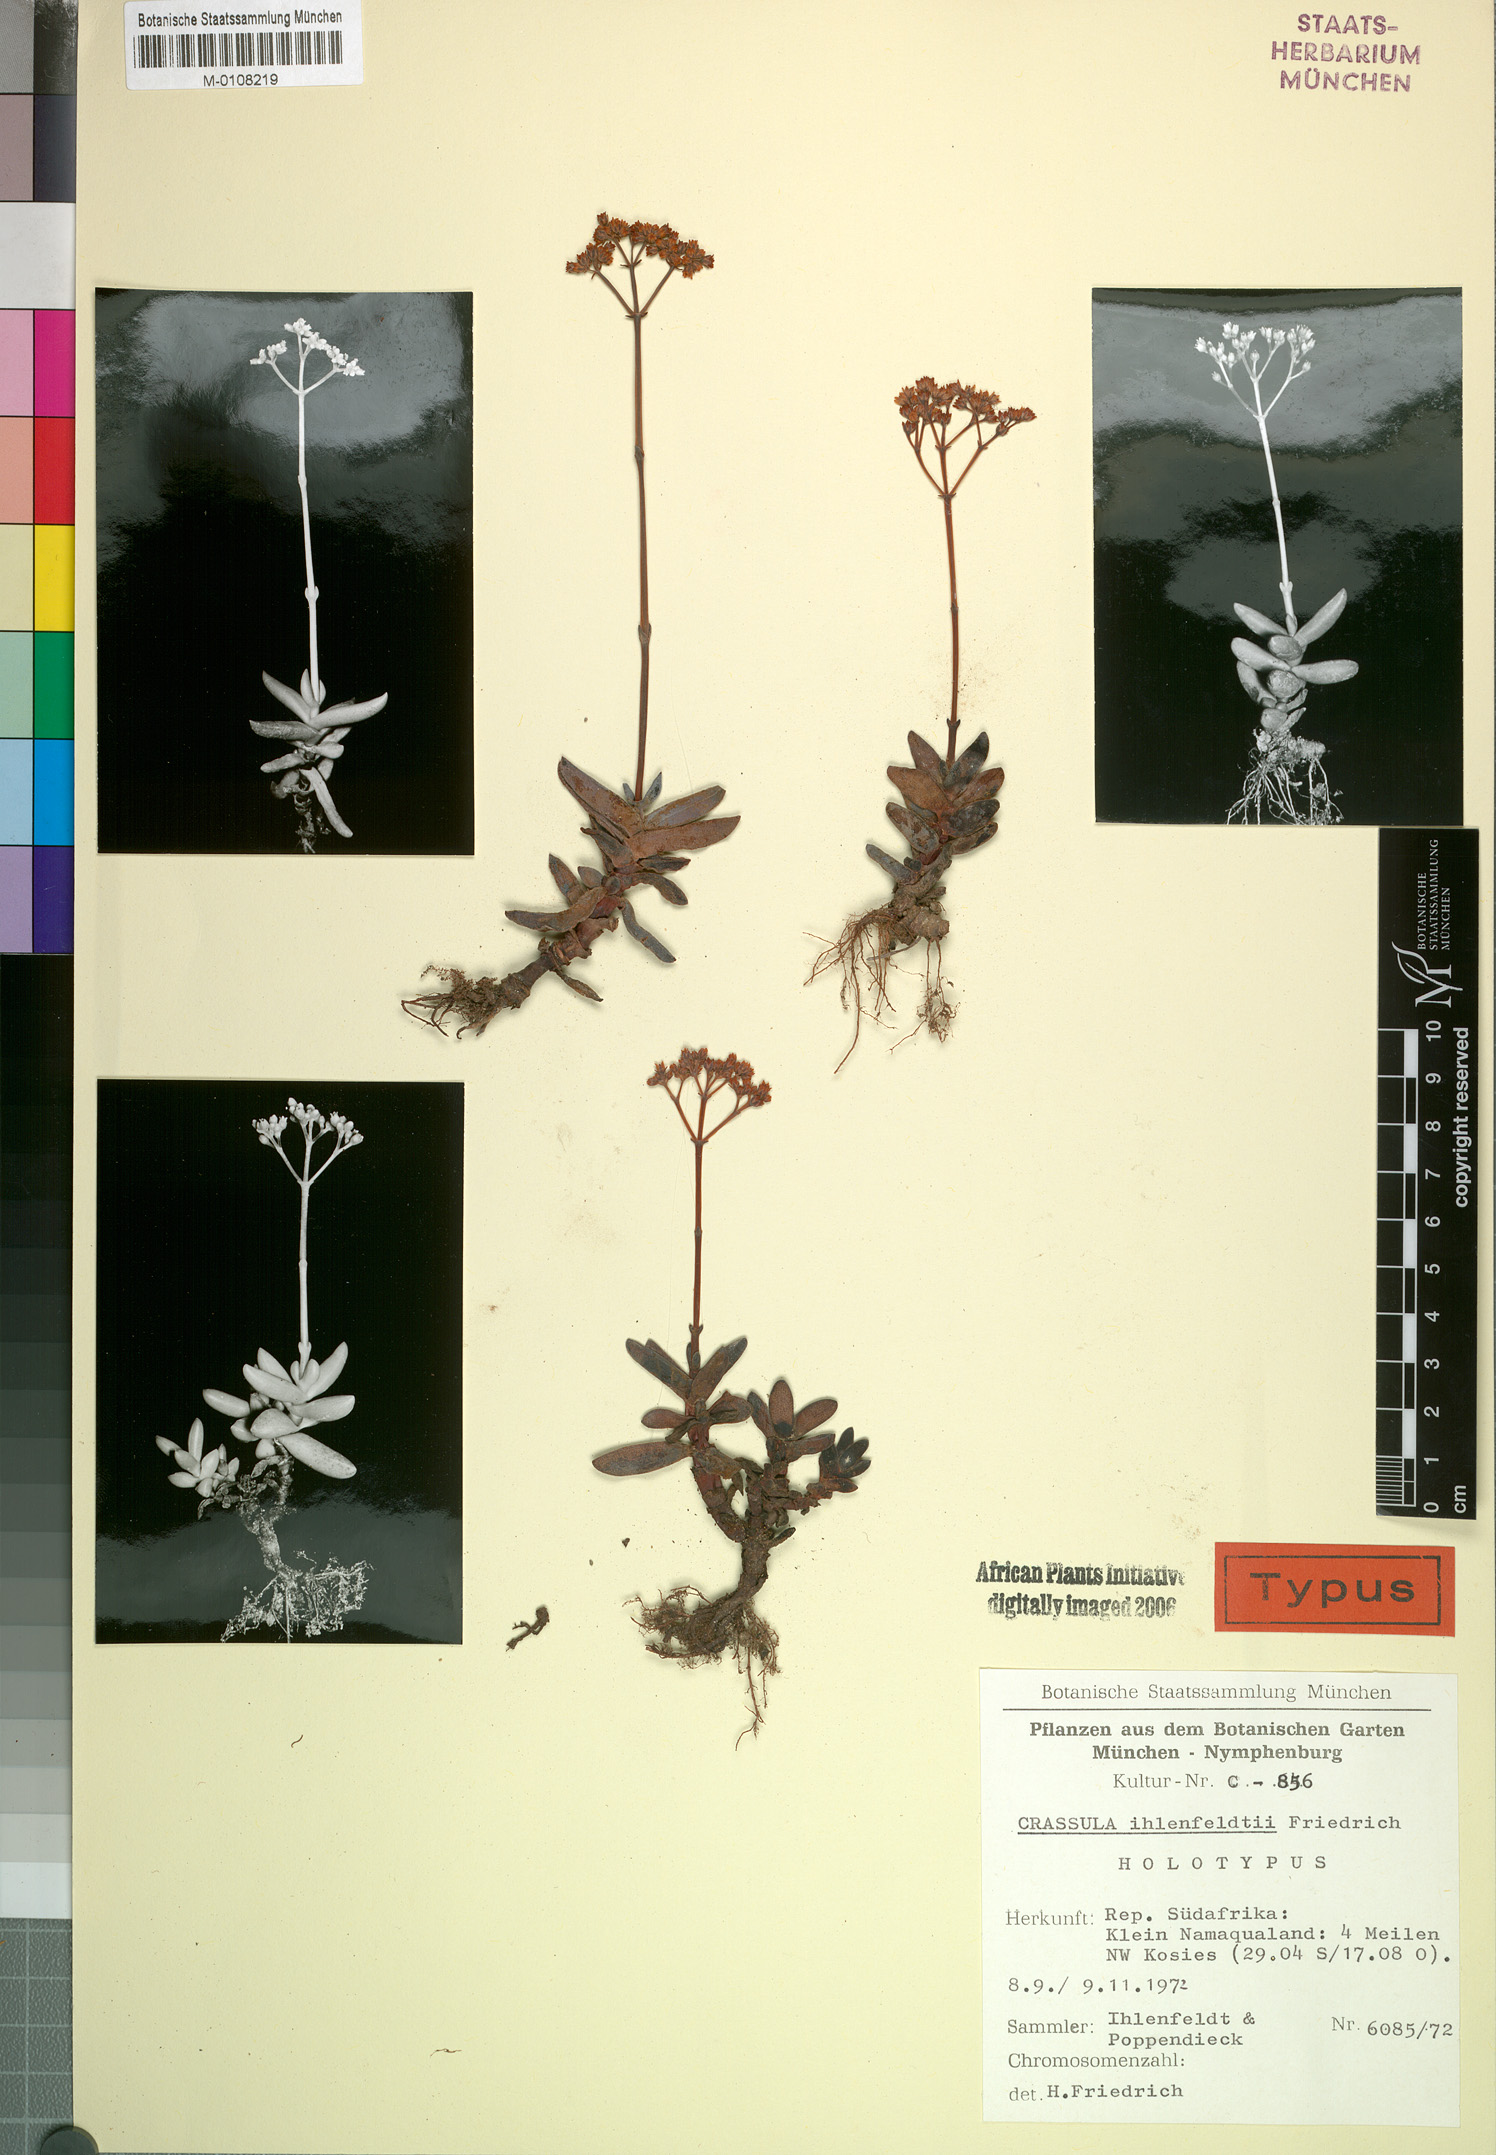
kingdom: Plantae
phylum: Tracheophyta
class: Magnoliopsida
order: Saxifragales
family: Crassulaceae
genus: Crassula
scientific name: Crassula grisea
